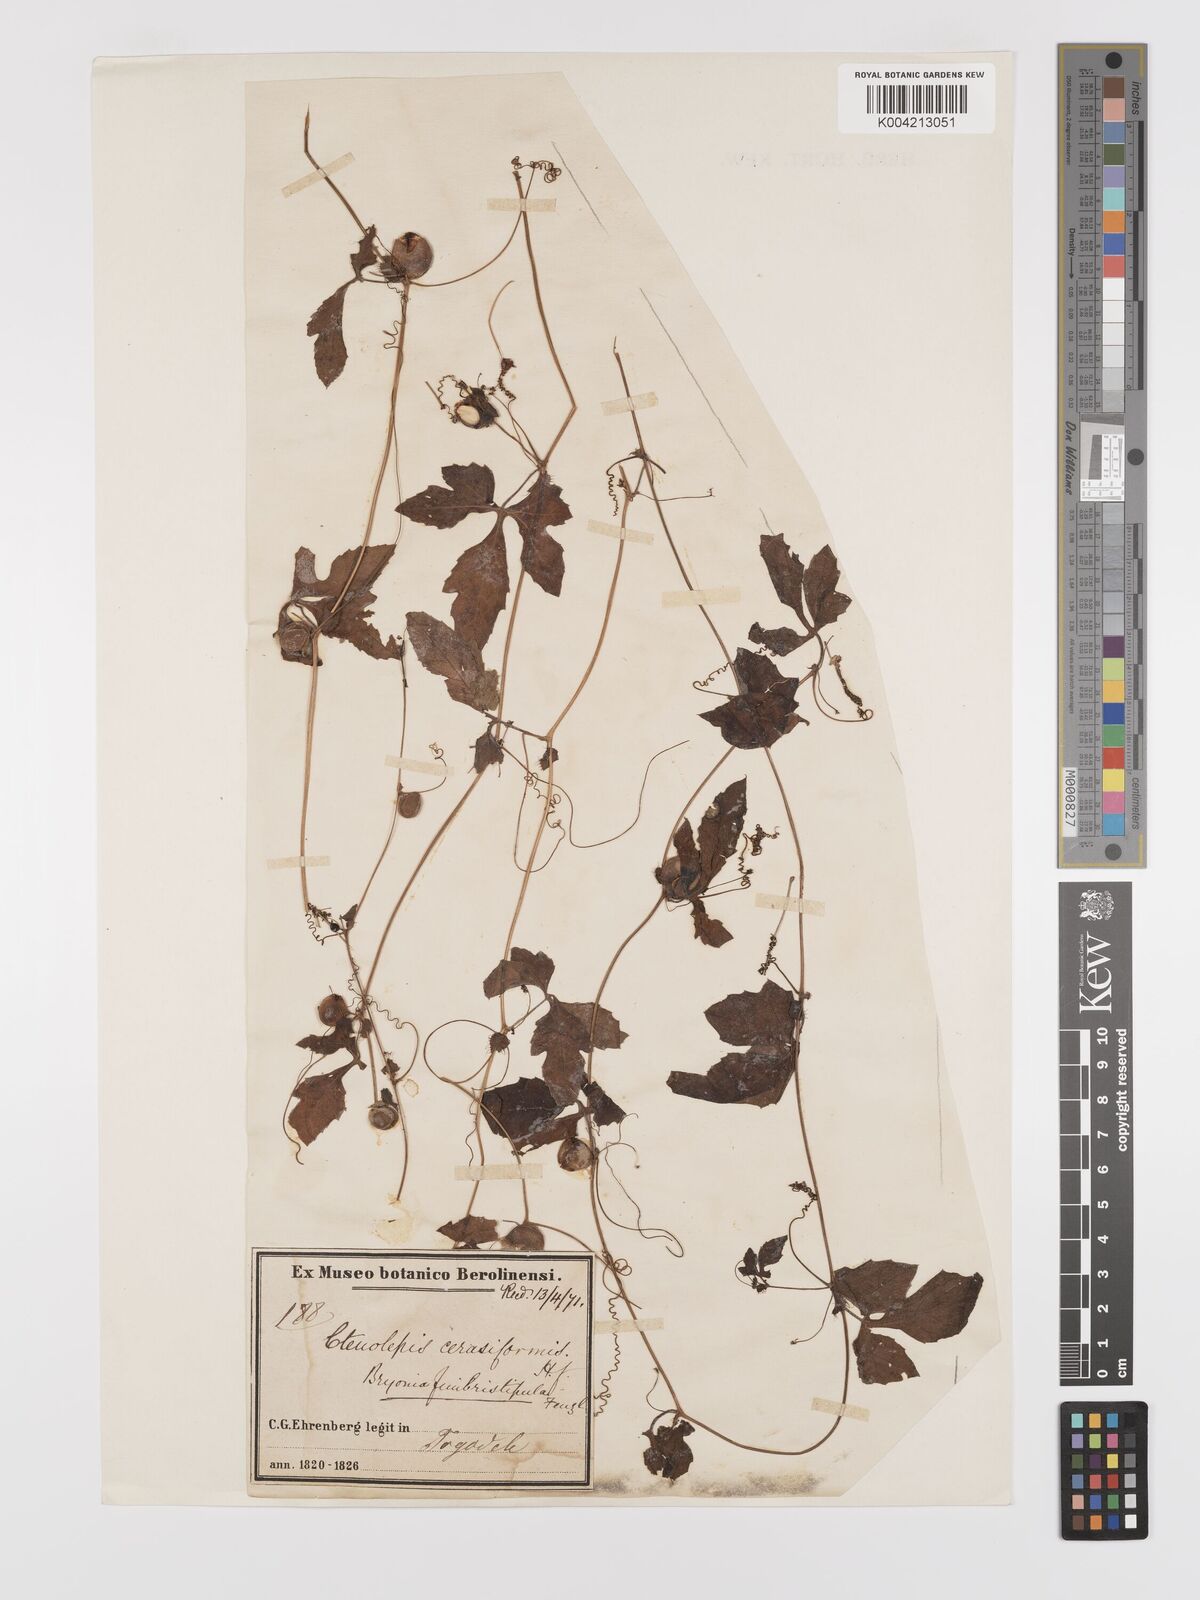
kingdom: Plantae
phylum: Tracheophyta
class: Magnoliopsida
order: Cucurbitales
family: Cucurbitaceae
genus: Blastania
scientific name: Blastania cerasiformis
